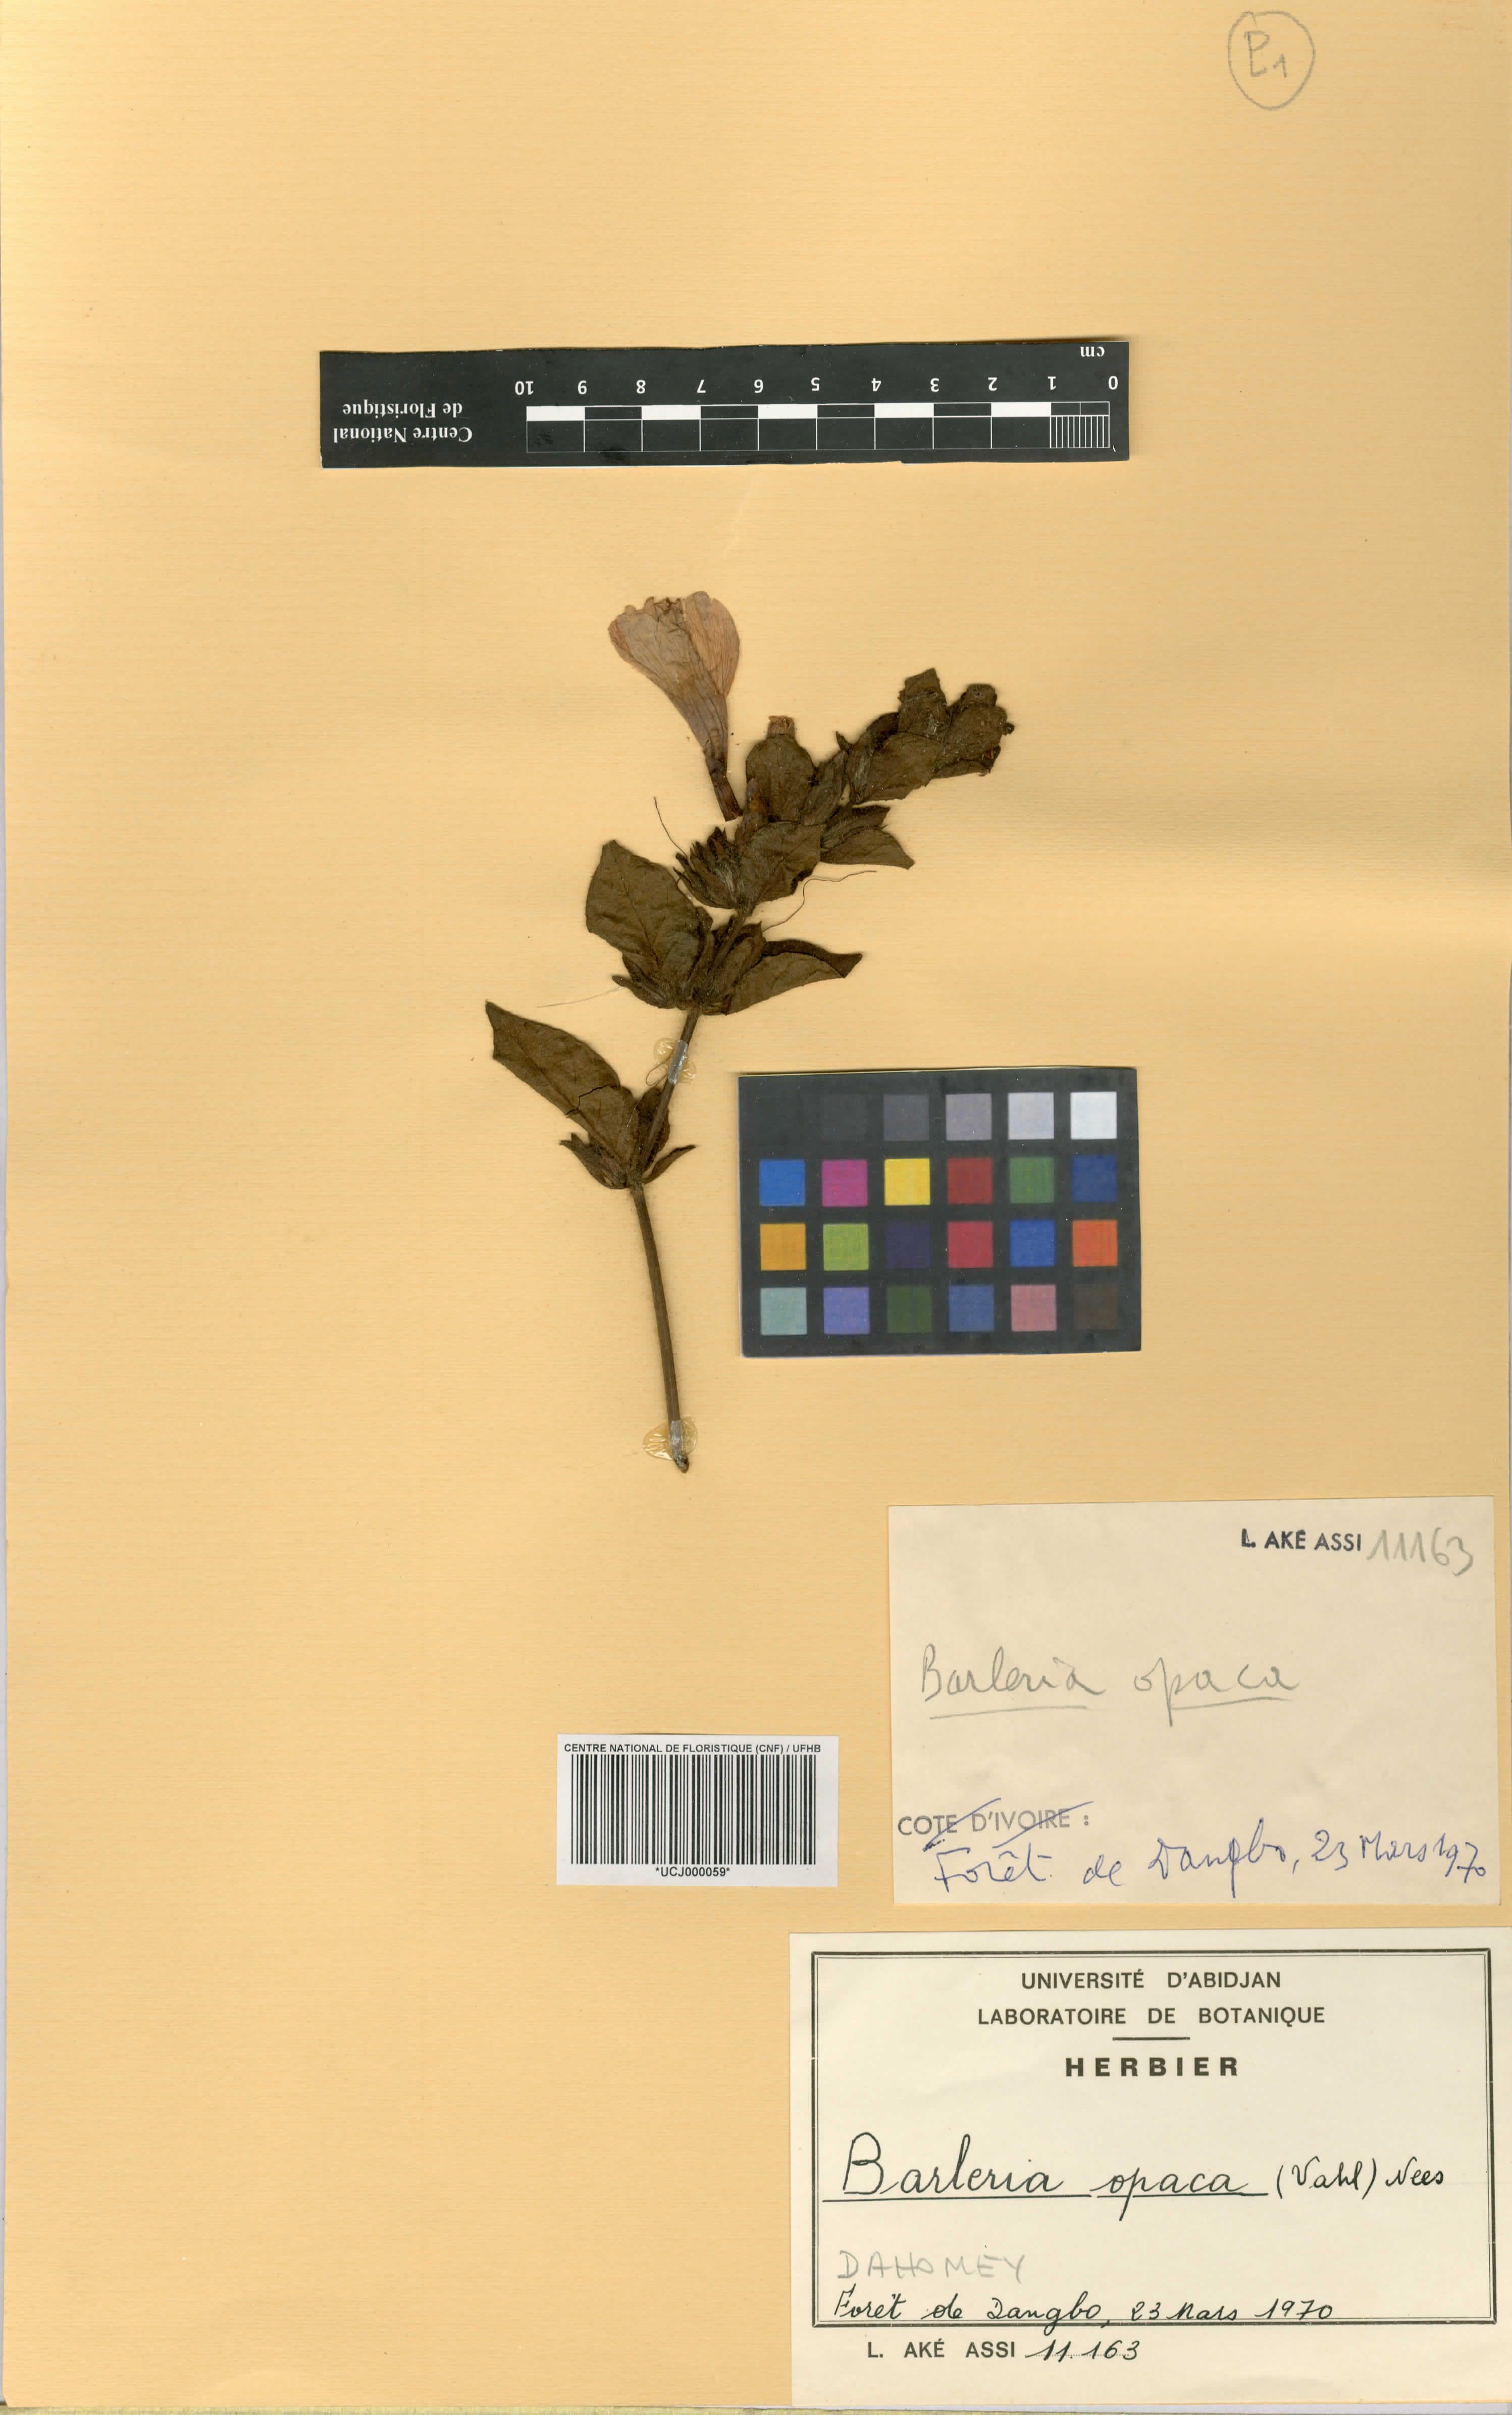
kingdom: Plantae
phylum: Tracheophyta
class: Magnoliopsida
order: Lamiales
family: Acanthaceae
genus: Barleria
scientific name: Barleria opaca
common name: Kwahu
